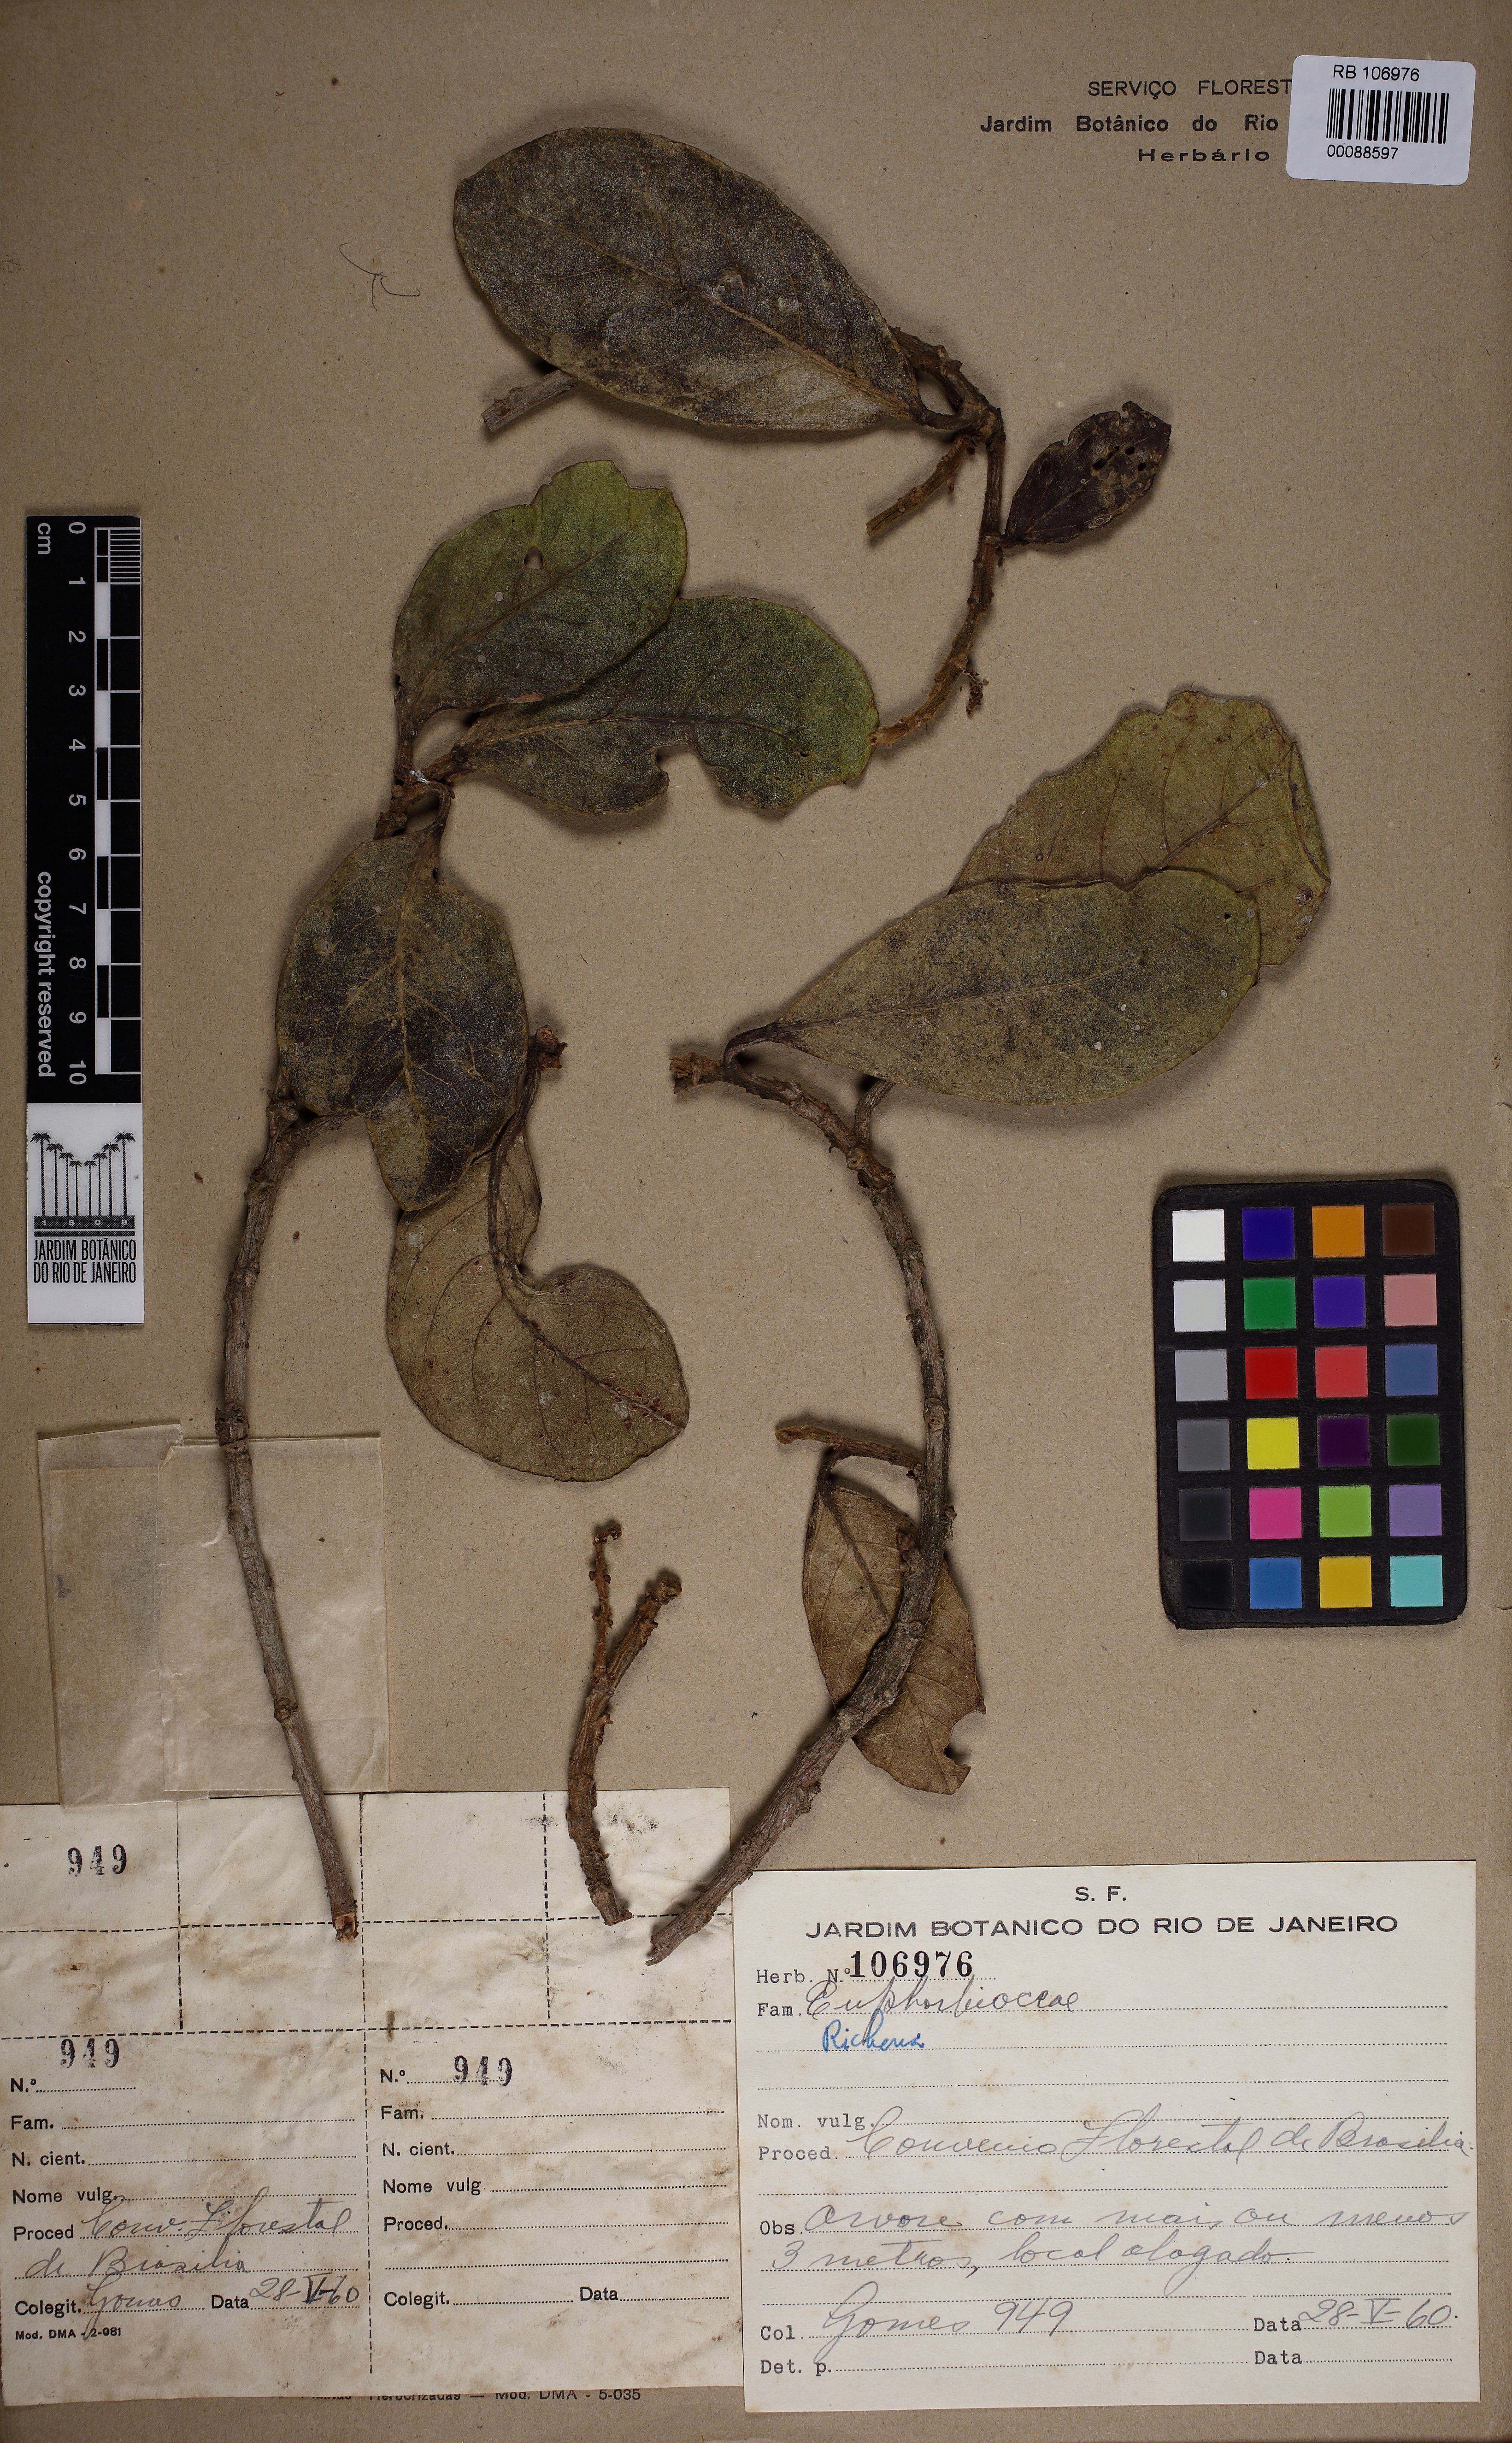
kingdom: Plantae
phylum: Tracheophyta
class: Magnoliopsida
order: Malpighiales
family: Phyllanthaceae
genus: Richeria
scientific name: Richeria
